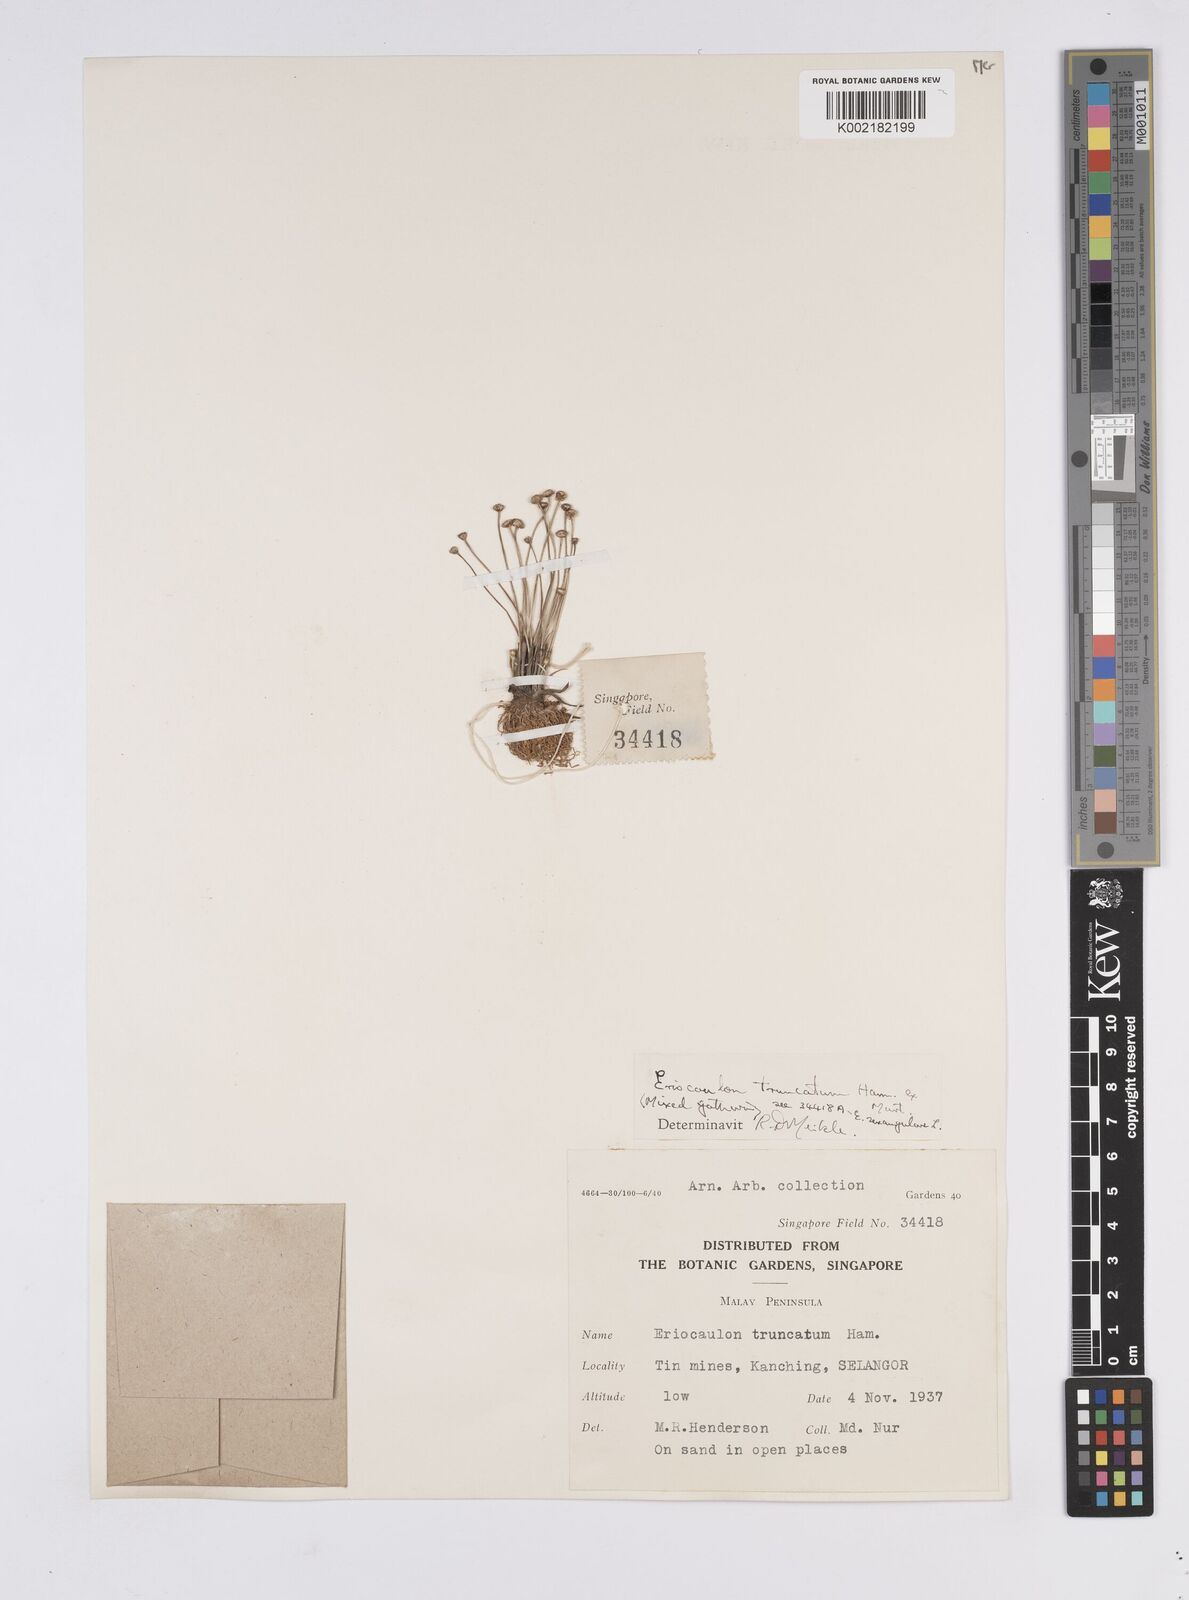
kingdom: Plantae
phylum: Tracheophyta
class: Liliopsida
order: Poales
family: Eriocaulaceae
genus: Eriocaulon
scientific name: Eriocaulon truncatum
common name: Short pipe-wort
